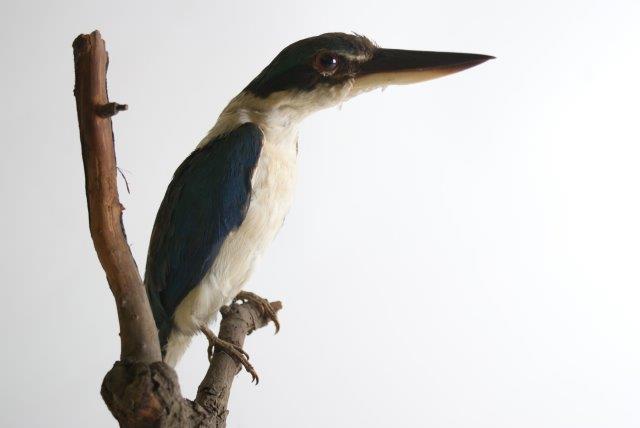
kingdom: Animalia
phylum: Chordata
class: Aves
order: Coraciiformes
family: Alcedinidae
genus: Todiramphus
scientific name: Todiramphus chloris
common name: Collared kingfisher
